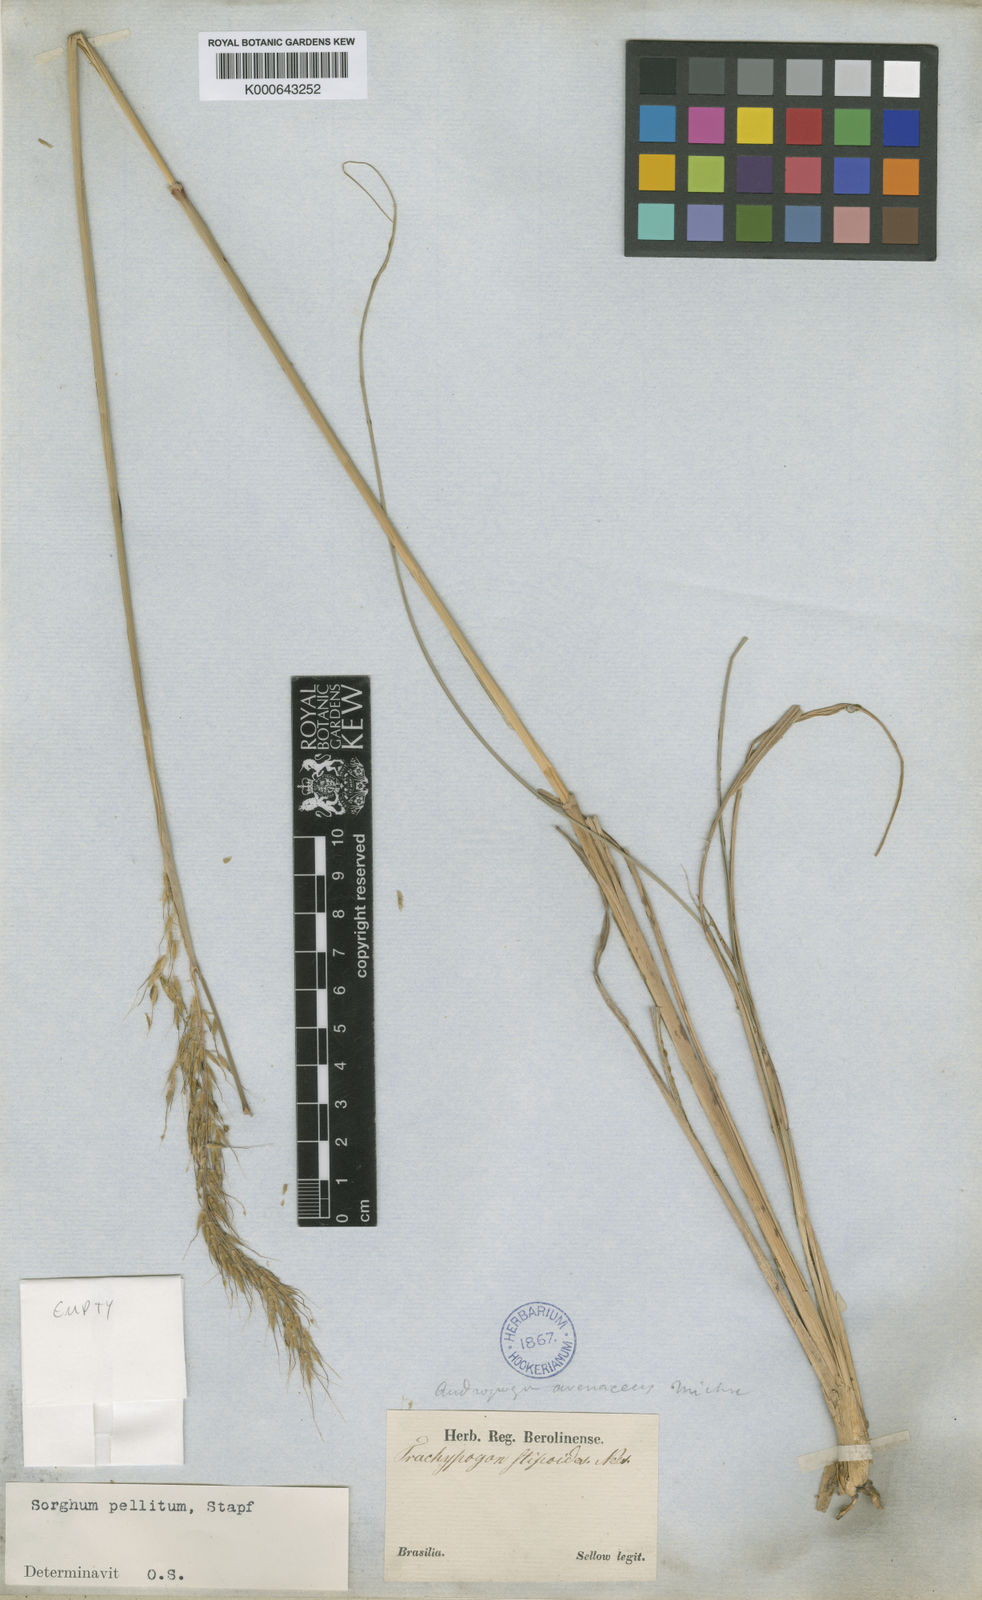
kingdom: Plantae
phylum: Tracheophyta
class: Liliopsida
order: Poales
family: Poaceae
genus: Axonopus
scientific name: Axonopus siccus
